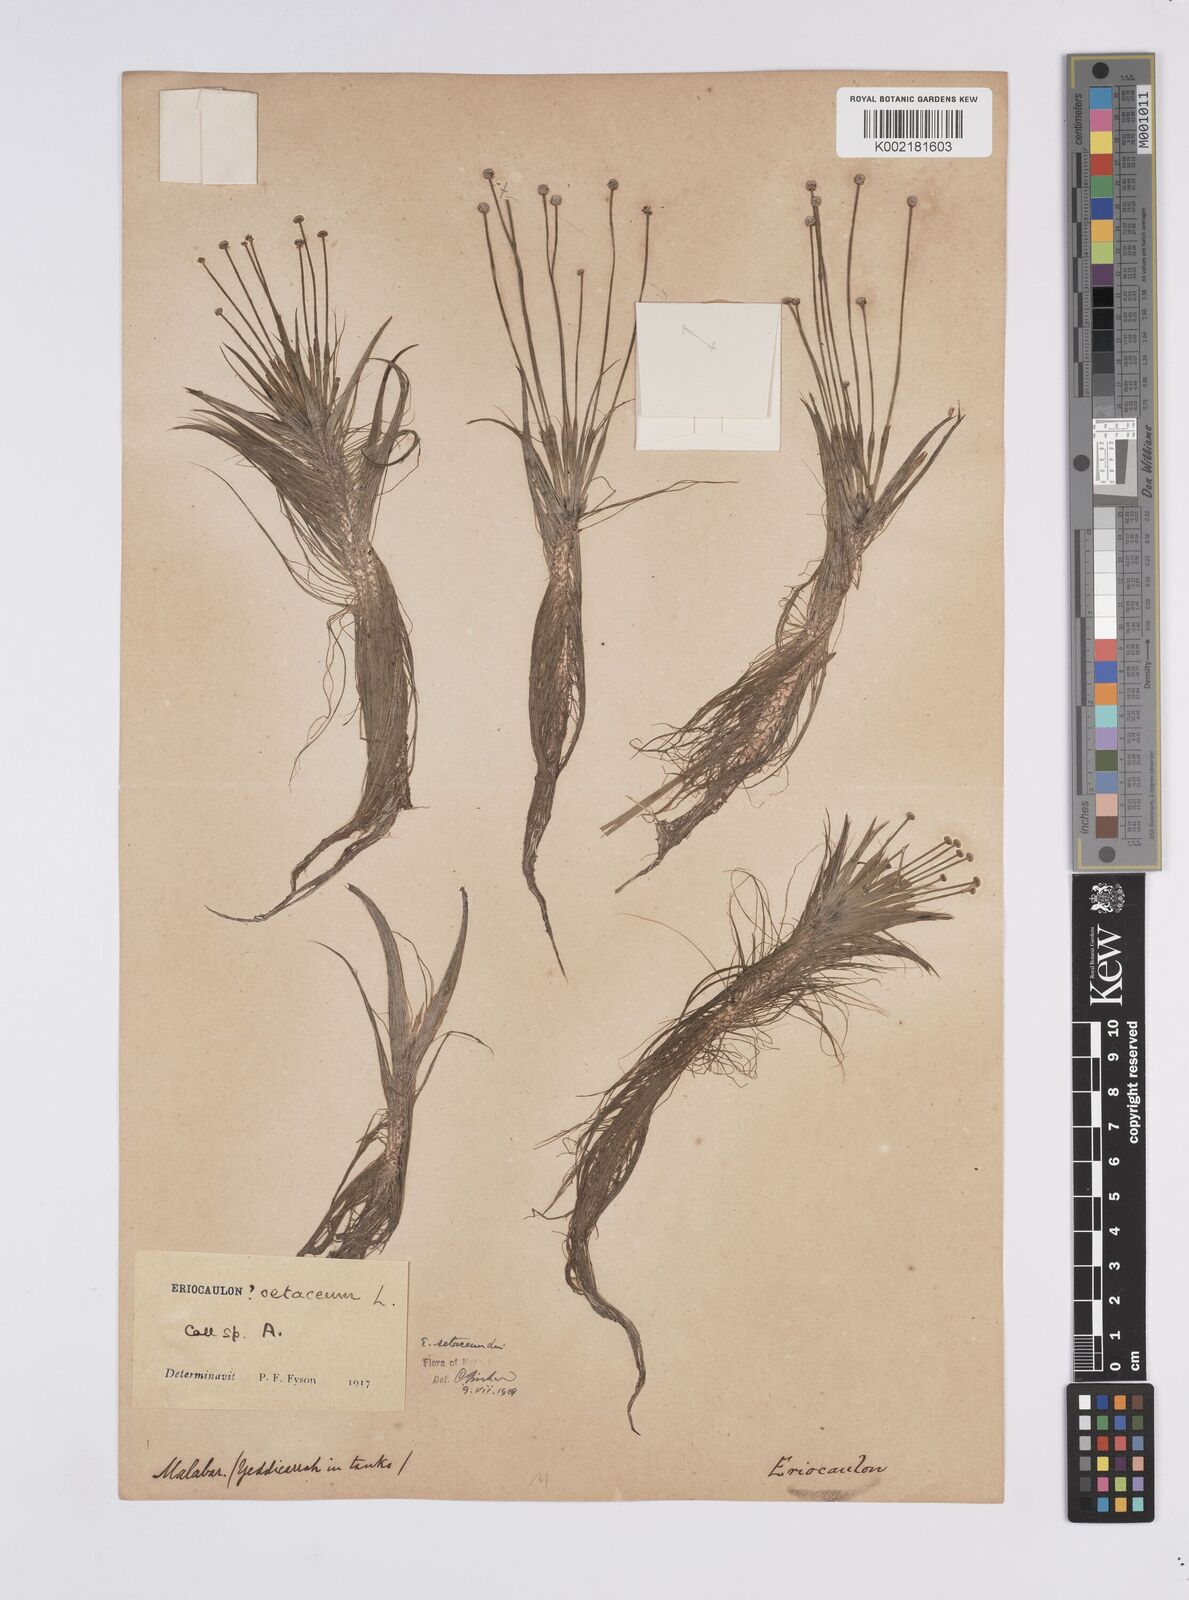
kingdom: Plantae
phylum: Tracheophyta
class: Liliopsida
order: Poales
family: Eriocaulaceae
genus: Eriocaulon
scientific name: Eriocaulon setaceum
